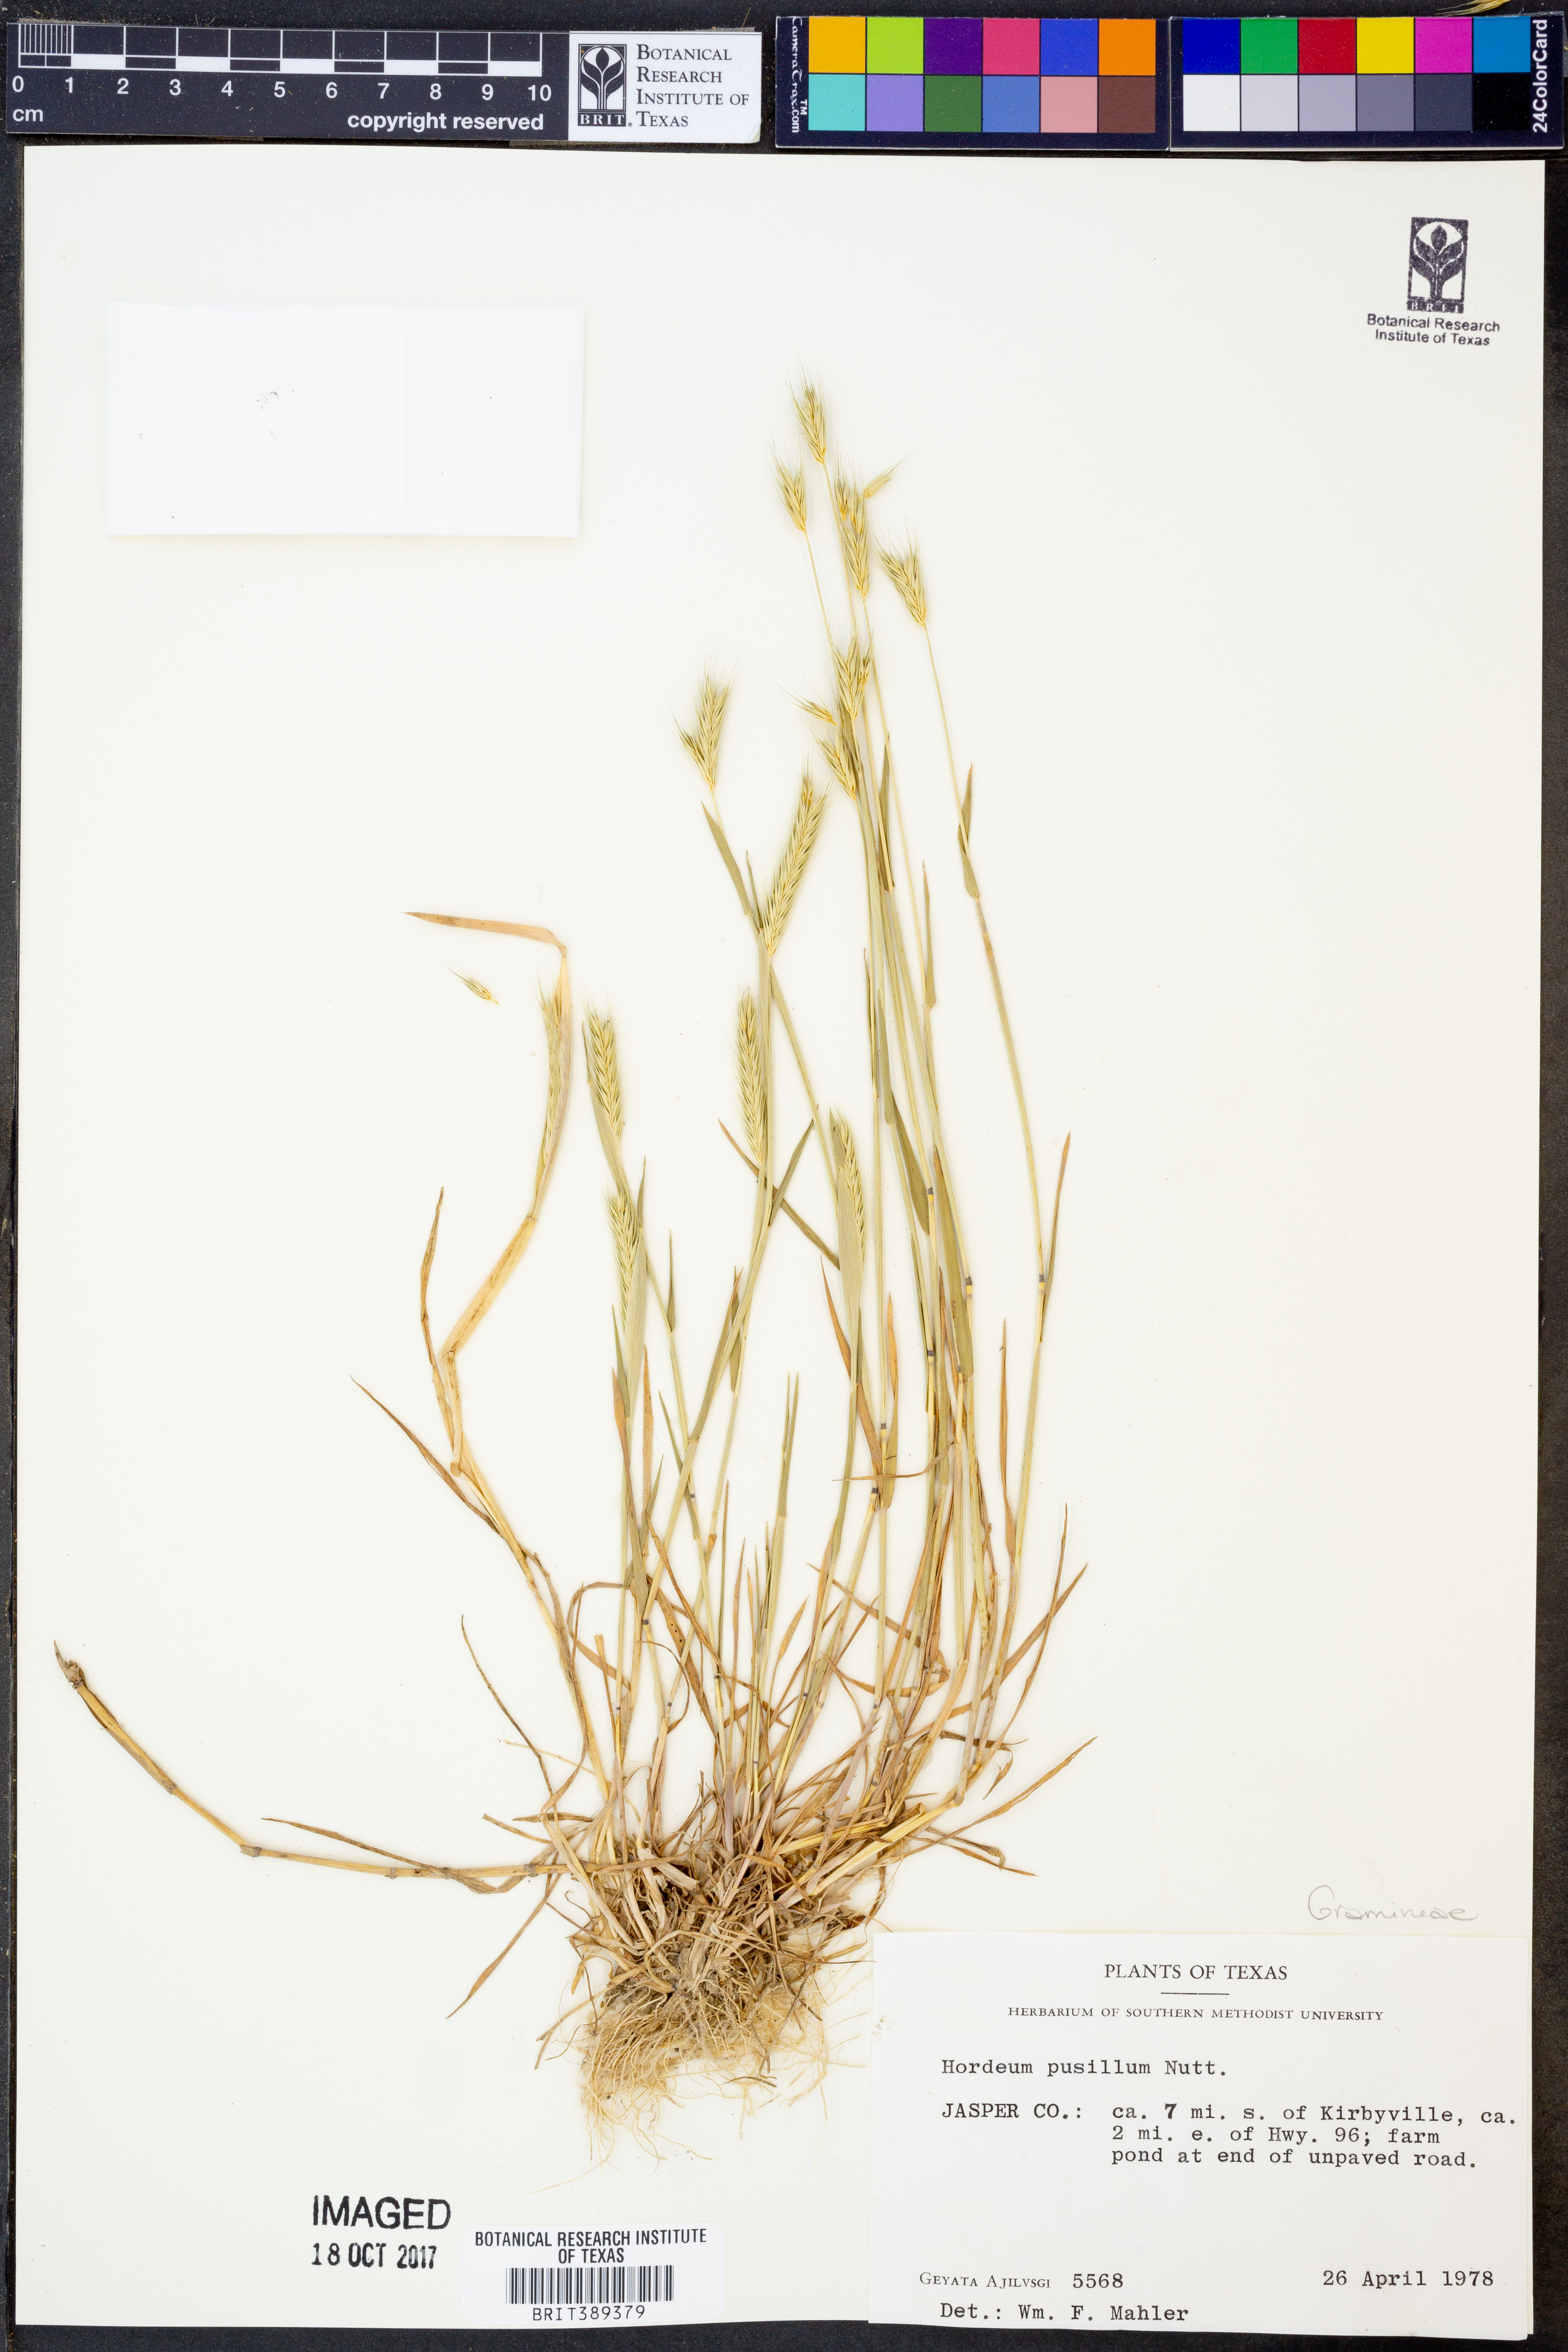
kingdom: Plantae
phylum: Tracheophyta
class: Liliopsida
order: Poales
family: Poaceae
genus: Hordeum
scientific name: Hordeum pusillum
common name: Little barley
